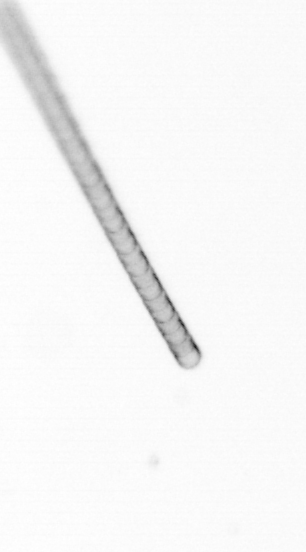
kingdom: Chromista
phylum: Ochrophyta
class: Bacillariophyceae
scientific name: Bacillariophyceae
